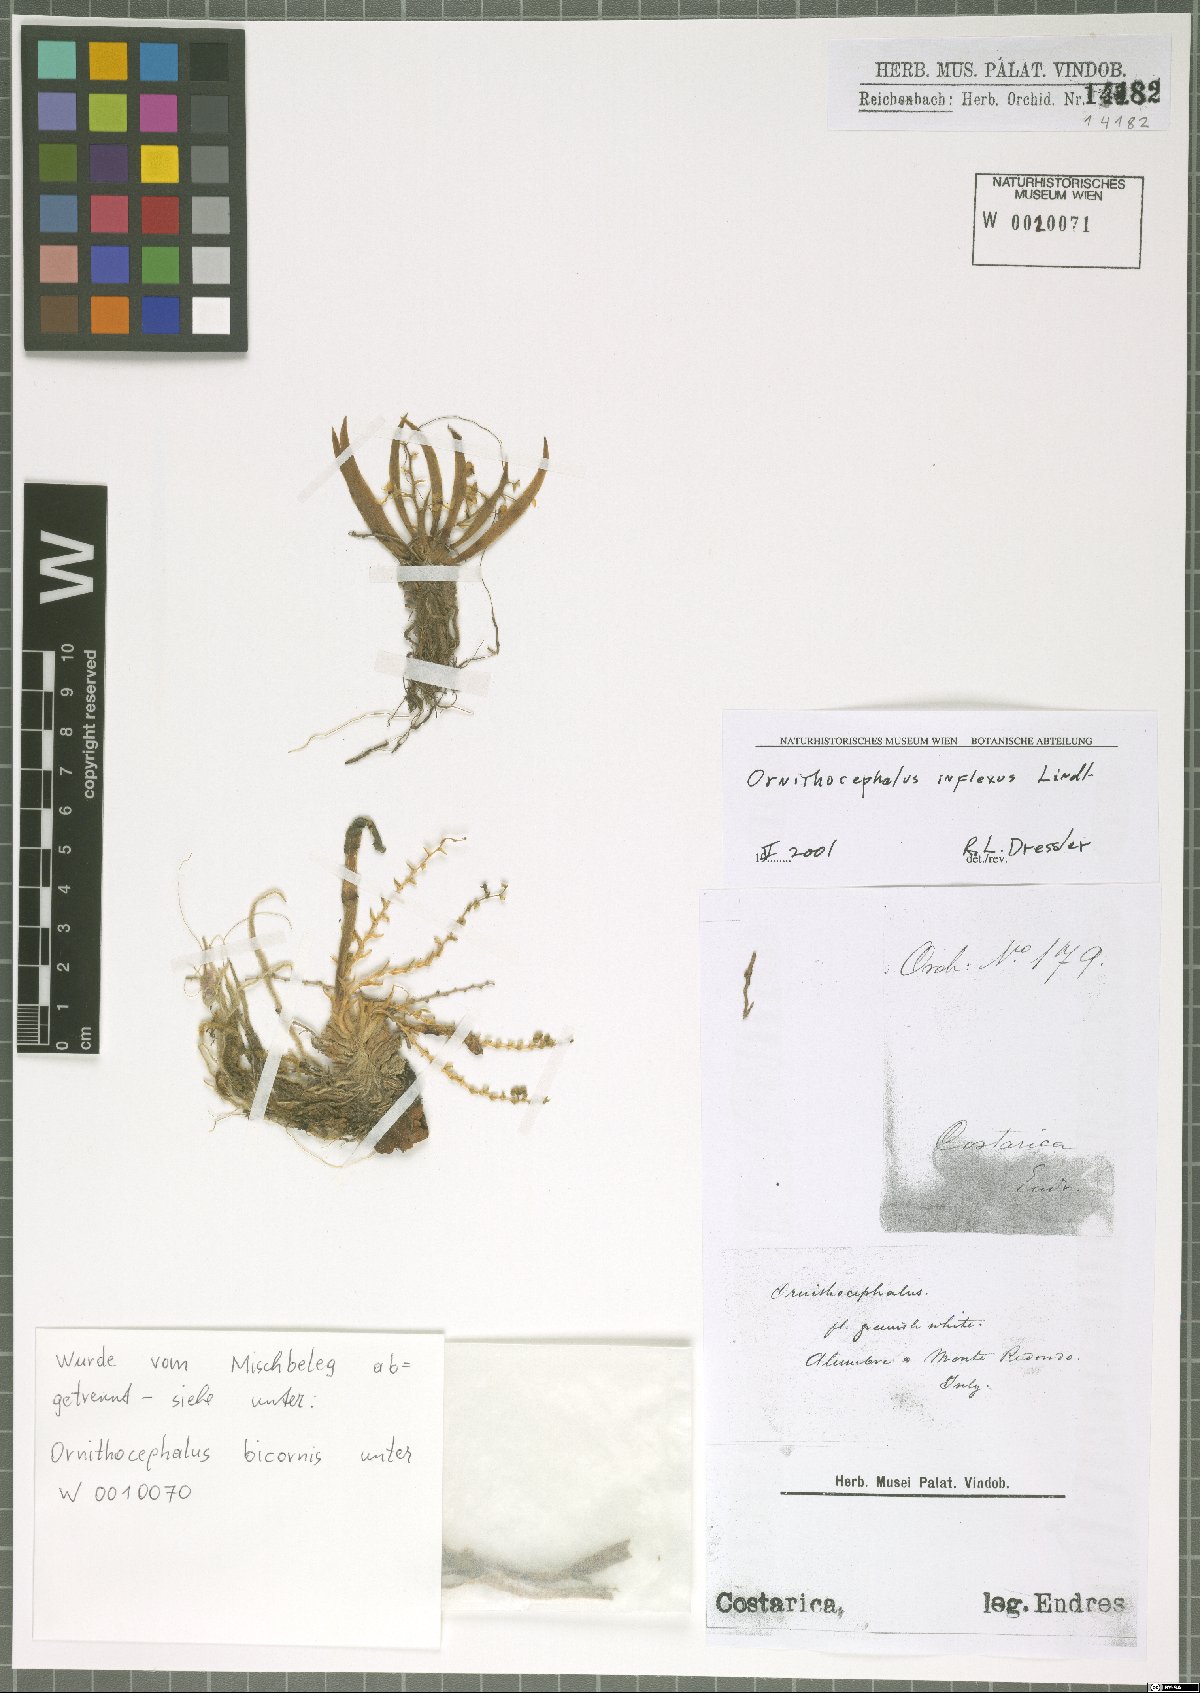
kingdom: Plantae
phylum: Tracheophyta
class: Liliopsida
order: Asparagales
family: Orchidaceae
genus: Ornithocephalus
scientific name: Ornithocephalus inflexus
